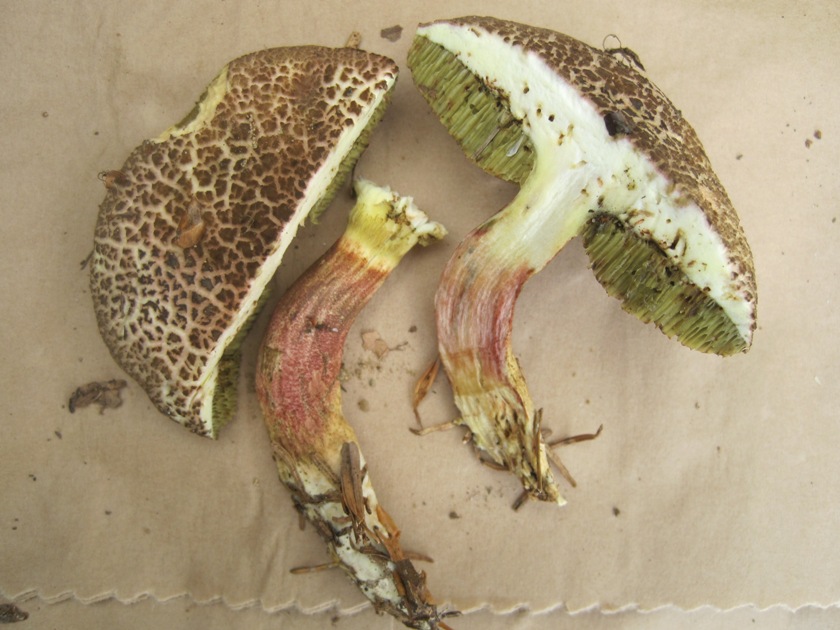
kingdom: Fungi
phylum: Basidiomycota
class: Agaricomycetes
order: Boletales
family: Boletaceae
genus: Xerocomellus
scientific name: Xerocomellus chrysenteron
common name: rødsprukken rørhat
